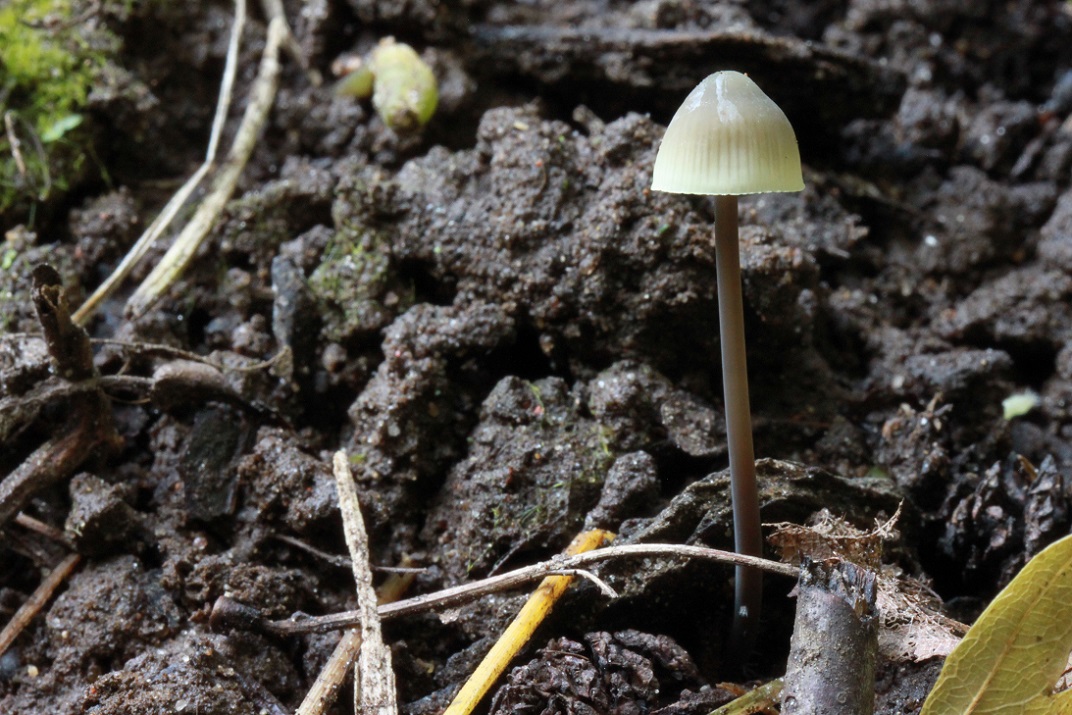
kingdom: Fungi
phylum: Basidiomycota
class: Agaricomycetes
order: Agaricales
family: Mycenaceae
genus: Mycena
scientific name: Mycena arcangeliana
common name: oliven-huesvamp
